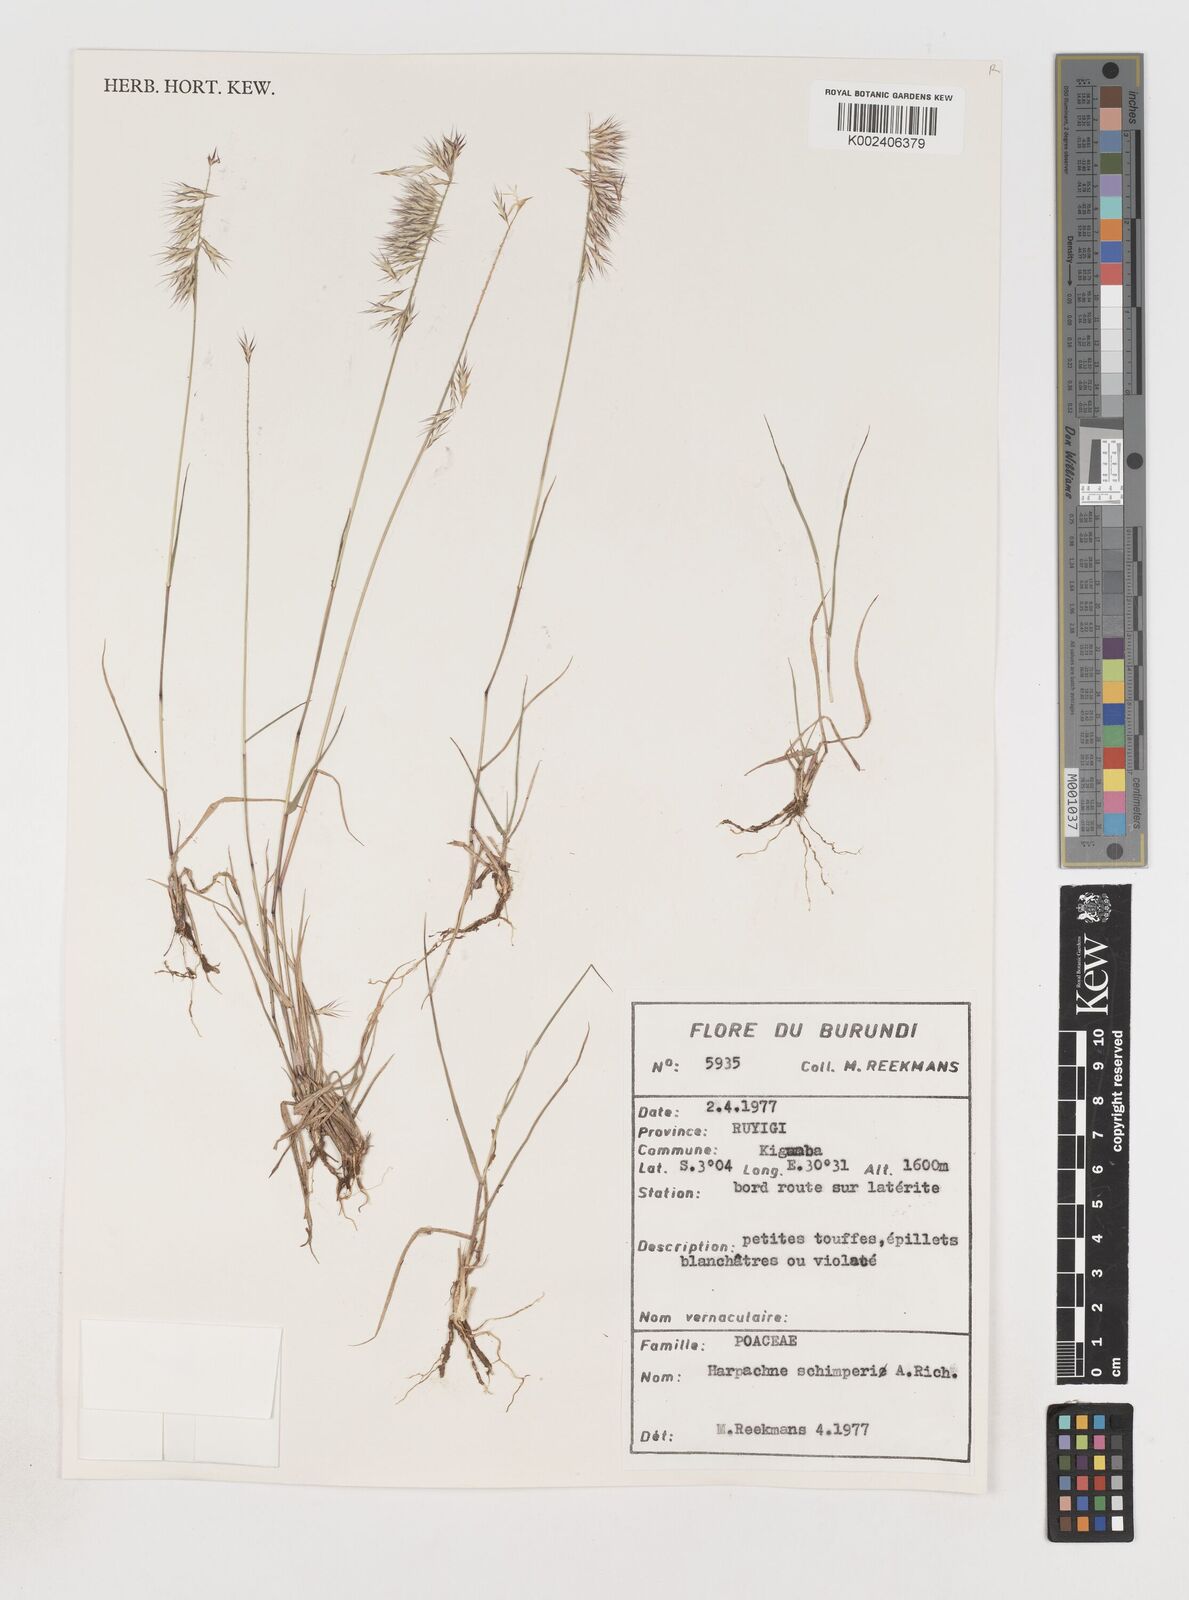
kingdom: Plantae
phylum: Tracheophyta
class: Liliopsida
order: Poales
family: Poaceae
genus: Harpachne
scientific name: Harpachne schimperi
